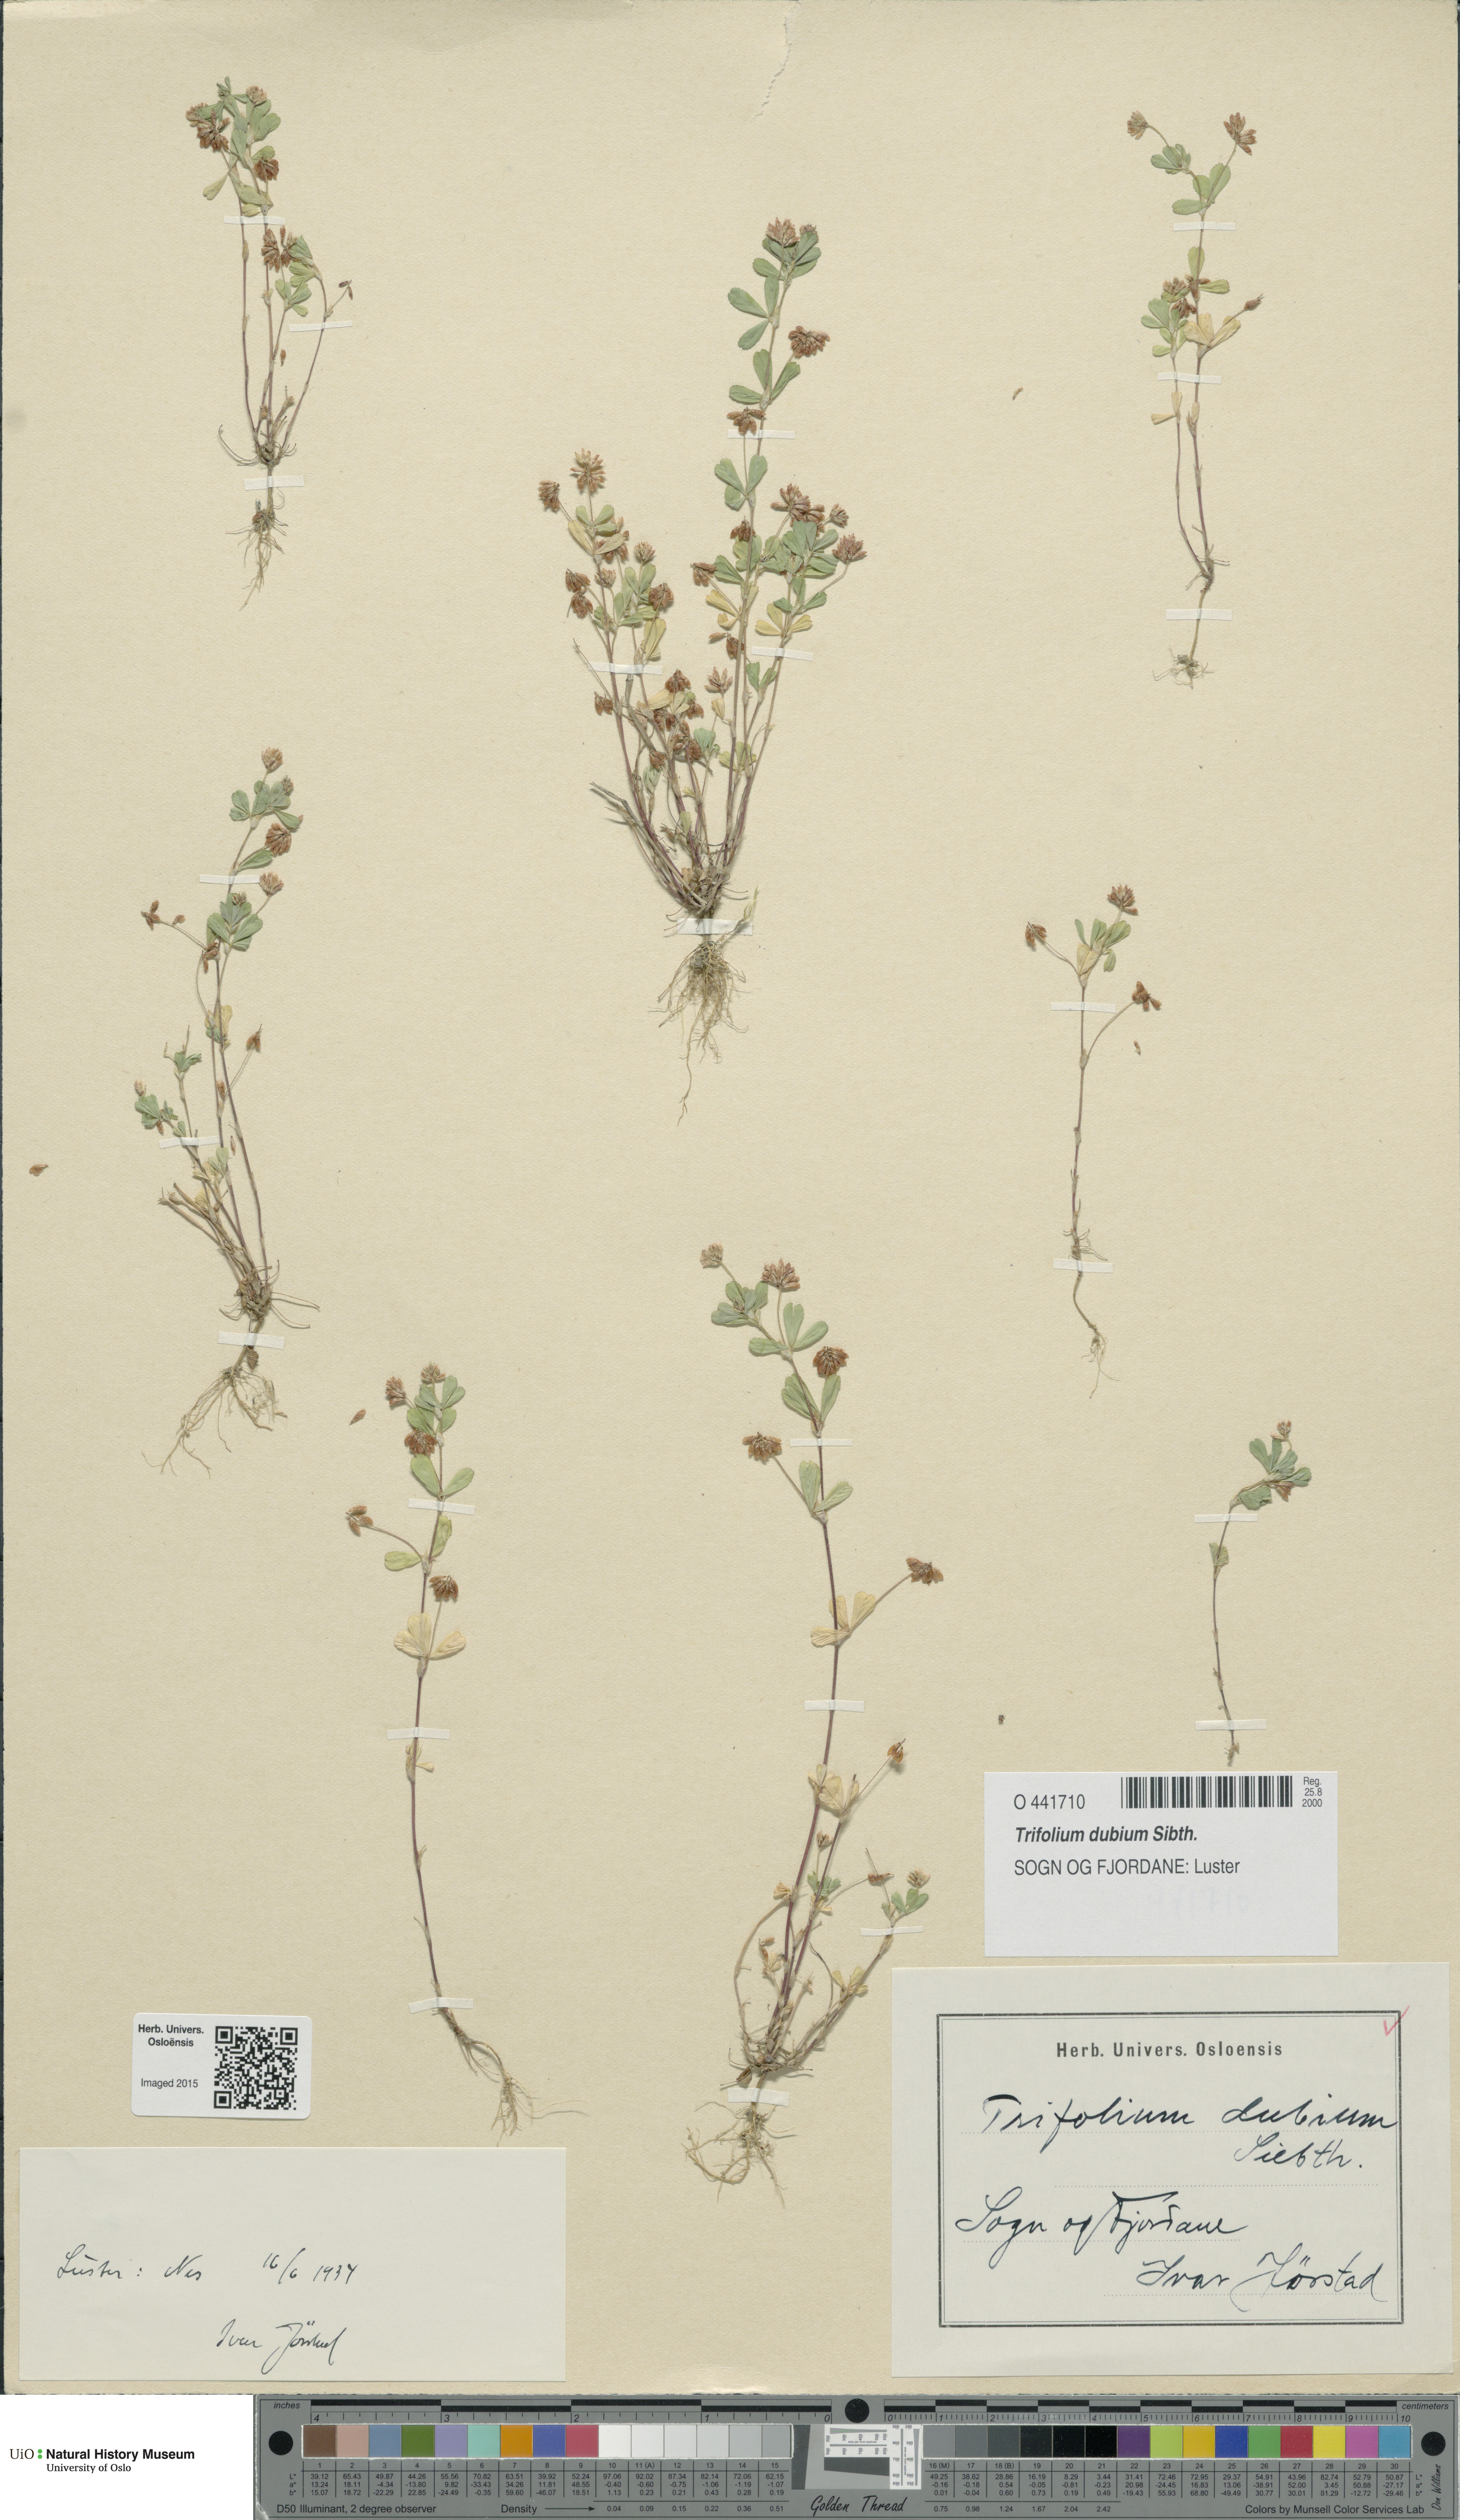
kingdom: Plantae
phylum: Tracheophyta
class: Magnoliopsida
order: Fabales
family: Fabaceae
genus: Trifolium
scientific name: Trifolium dubium
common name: Suckling clover
